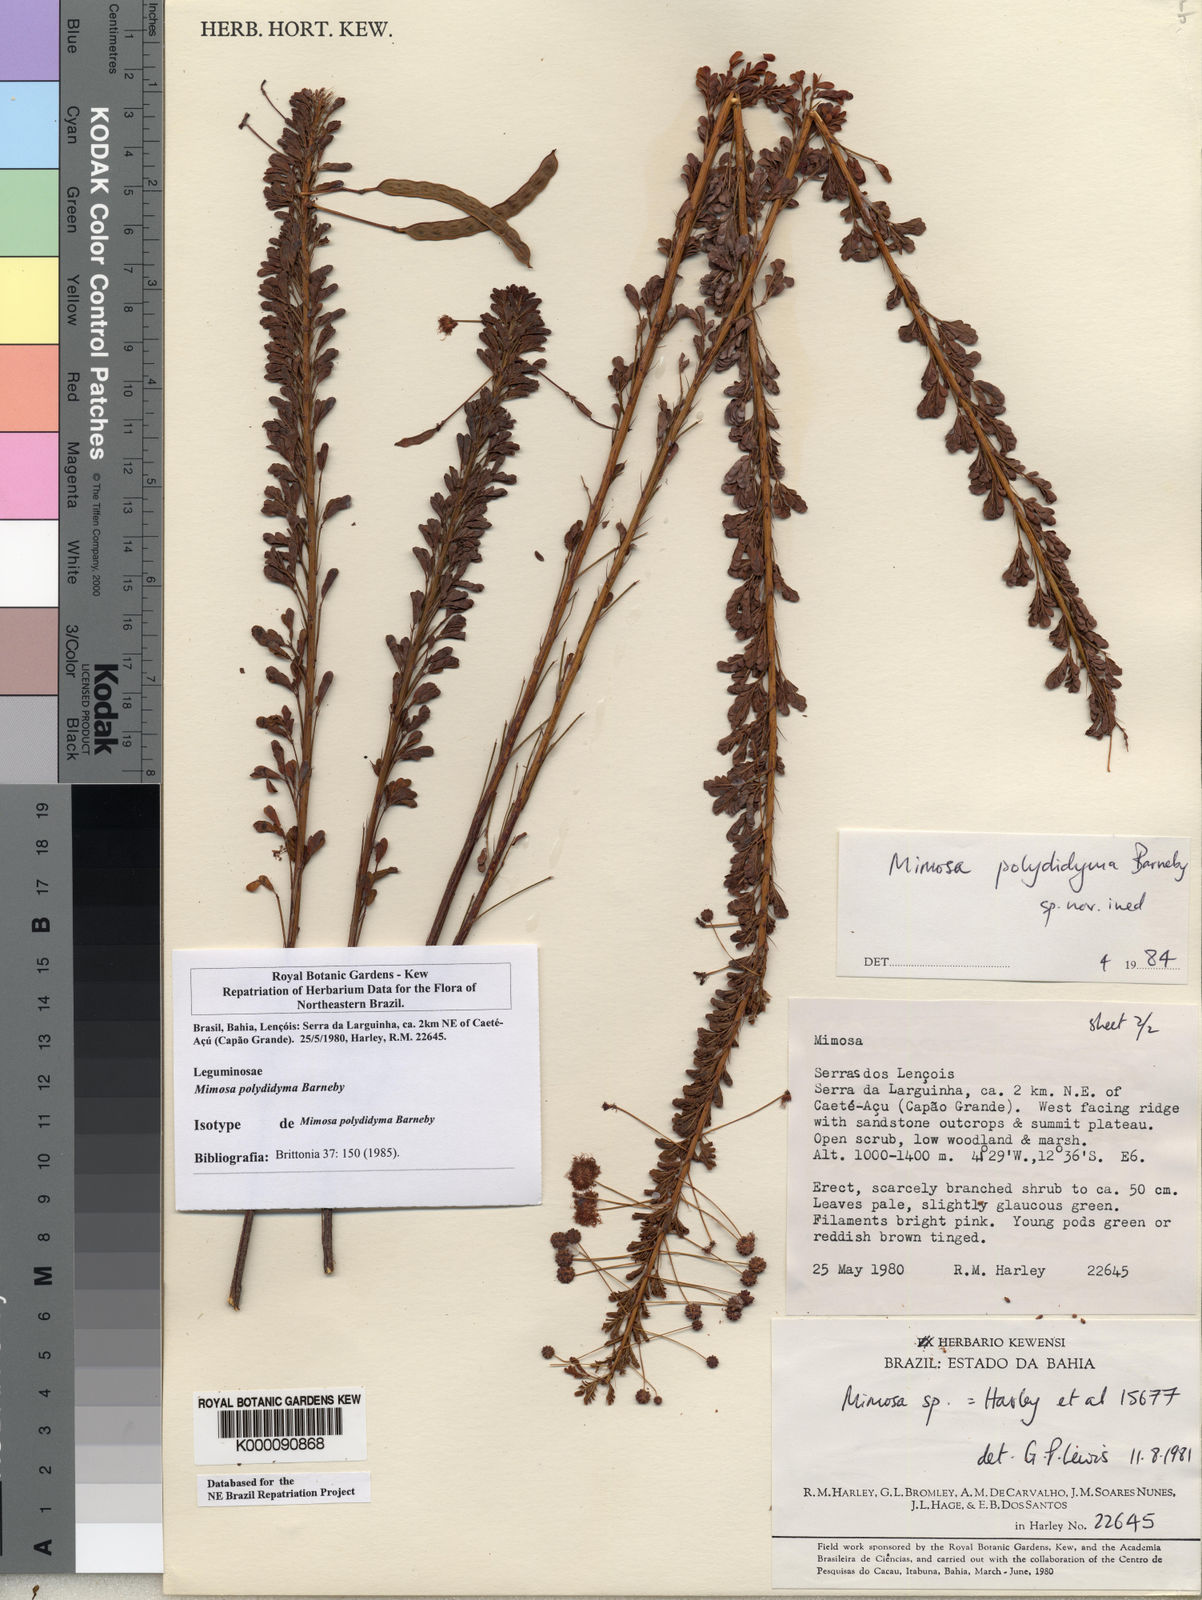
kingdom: Plantae
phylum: Tracheophyta
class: Magnoliopsida
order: Fabales
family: Fabaceae
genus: Mimosa
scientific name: Mimosa polydidyma
